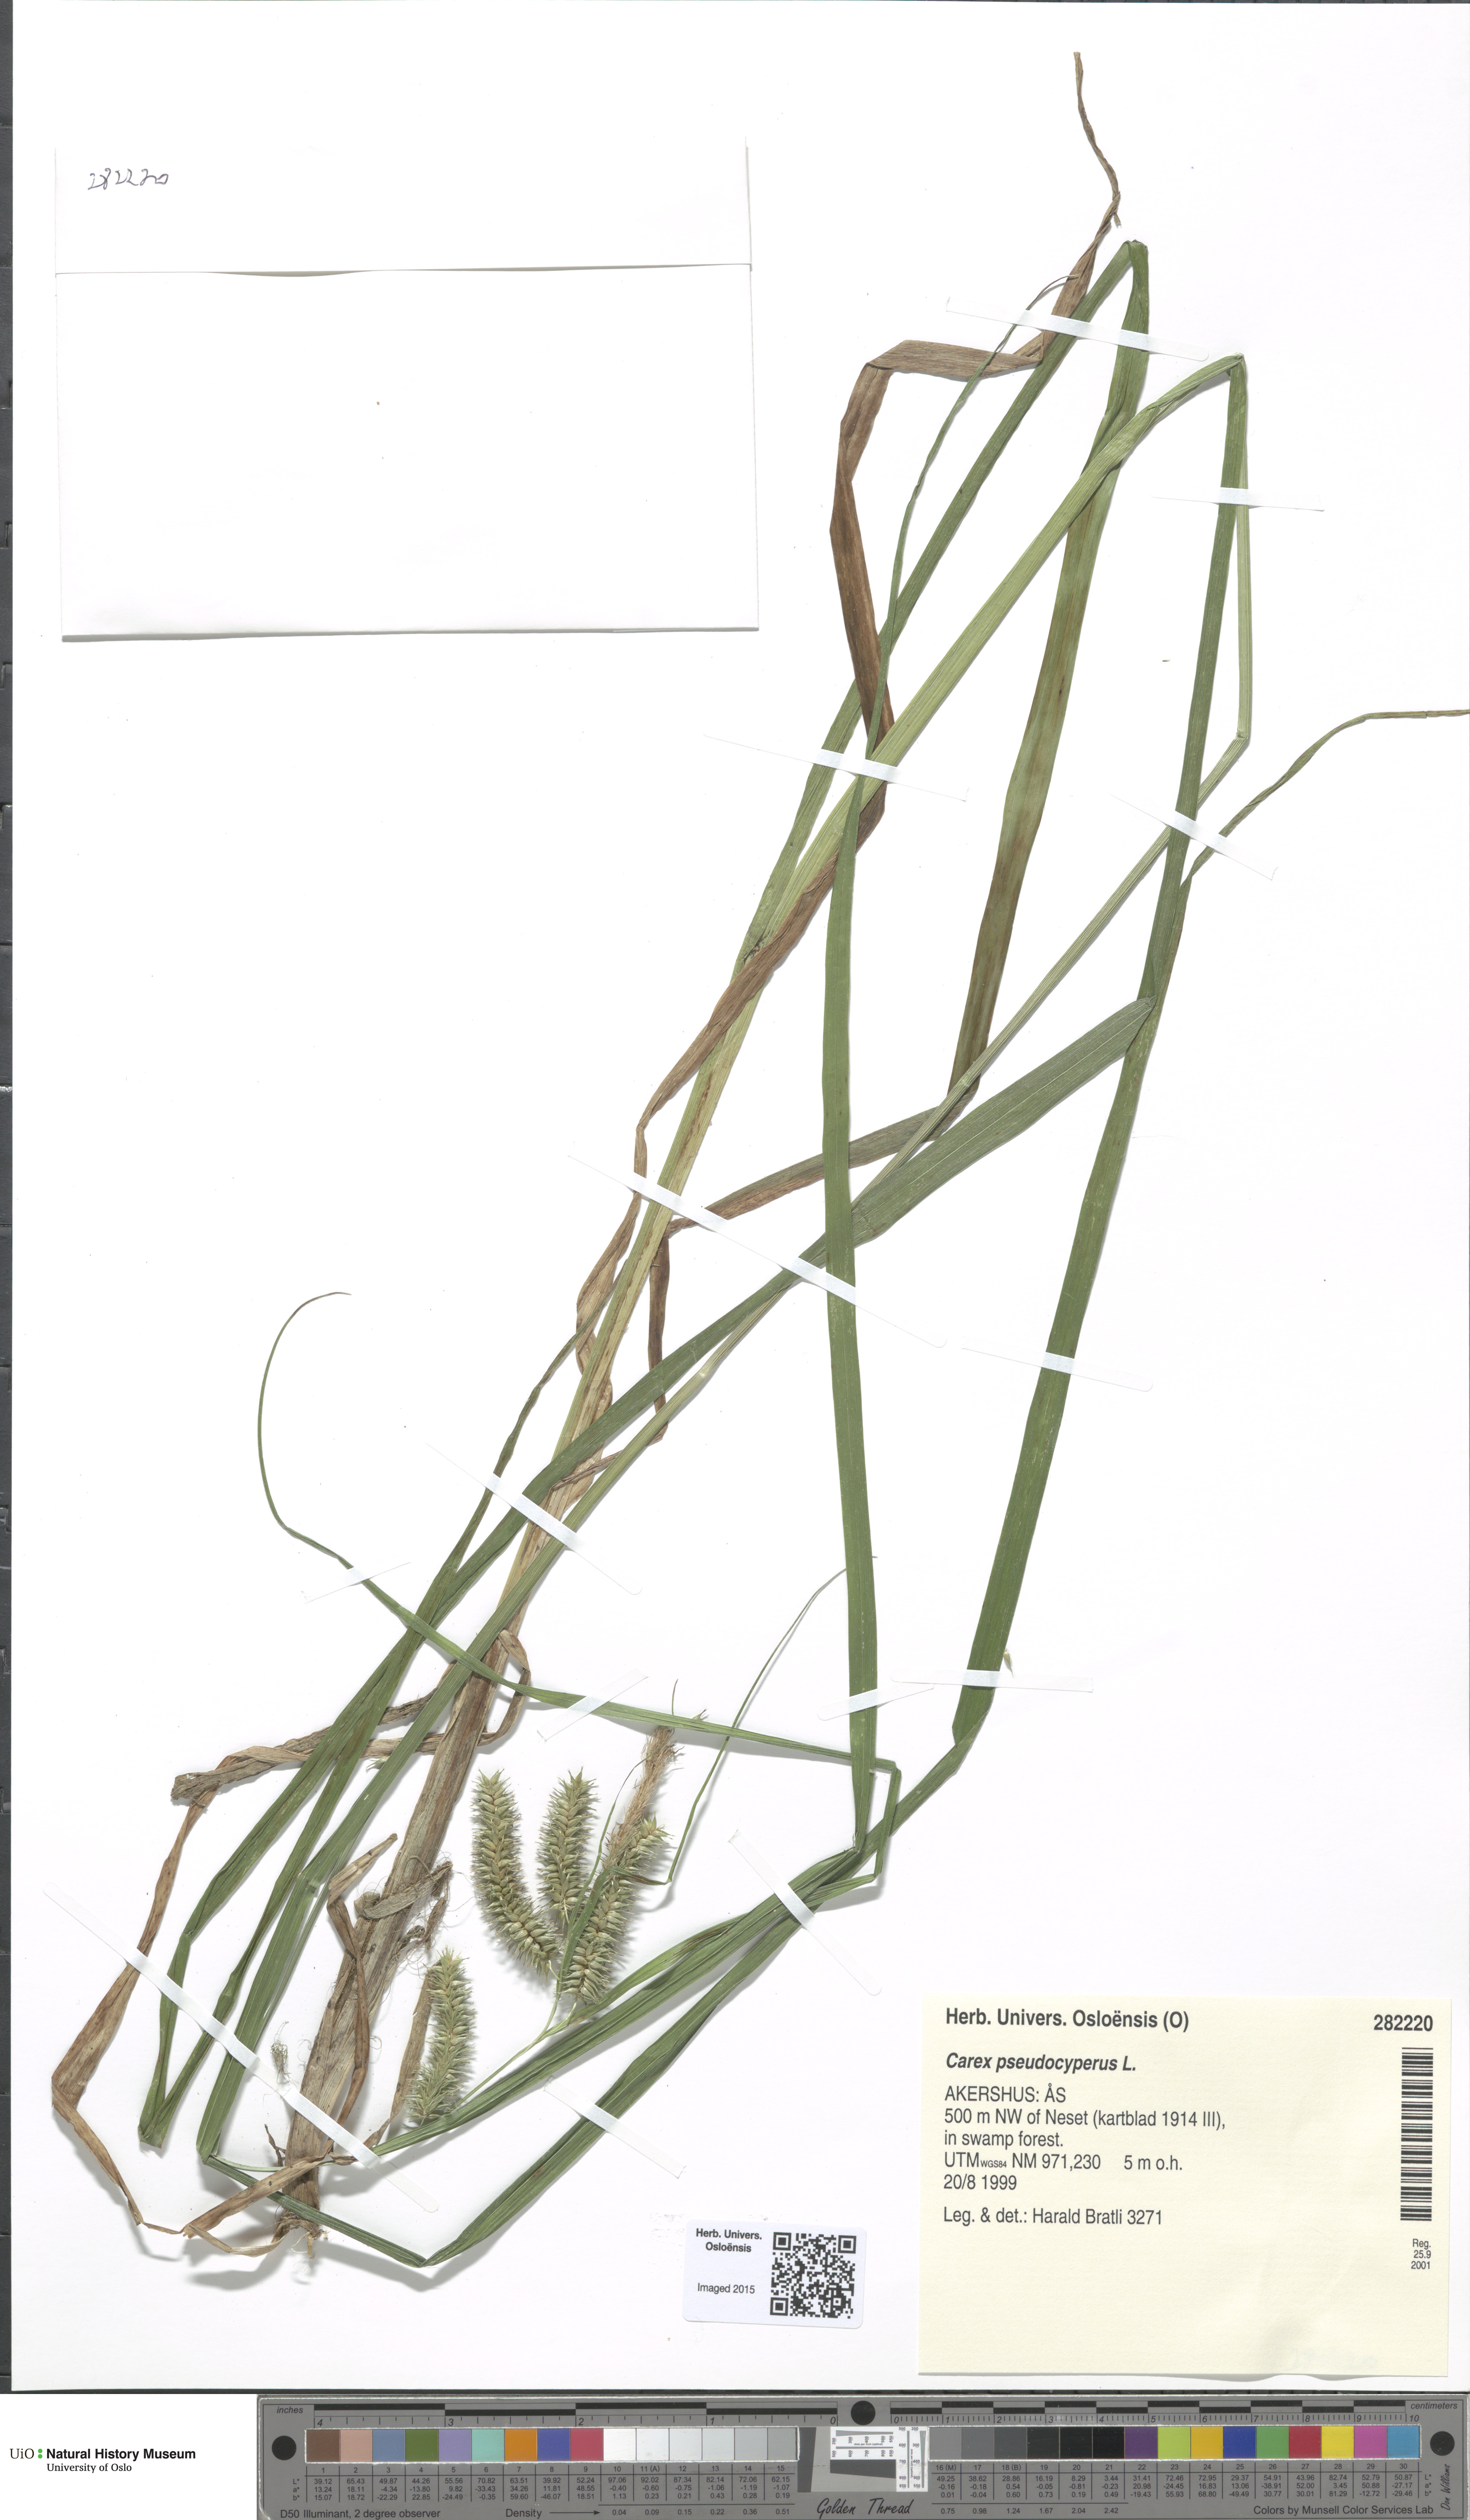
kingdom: Plantae
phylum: Tracheophyta
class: Liliopsida
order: Poales
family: Cyperaceae
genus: Carex
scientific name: Carex pseudocyperus
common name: Cyperus sedge
